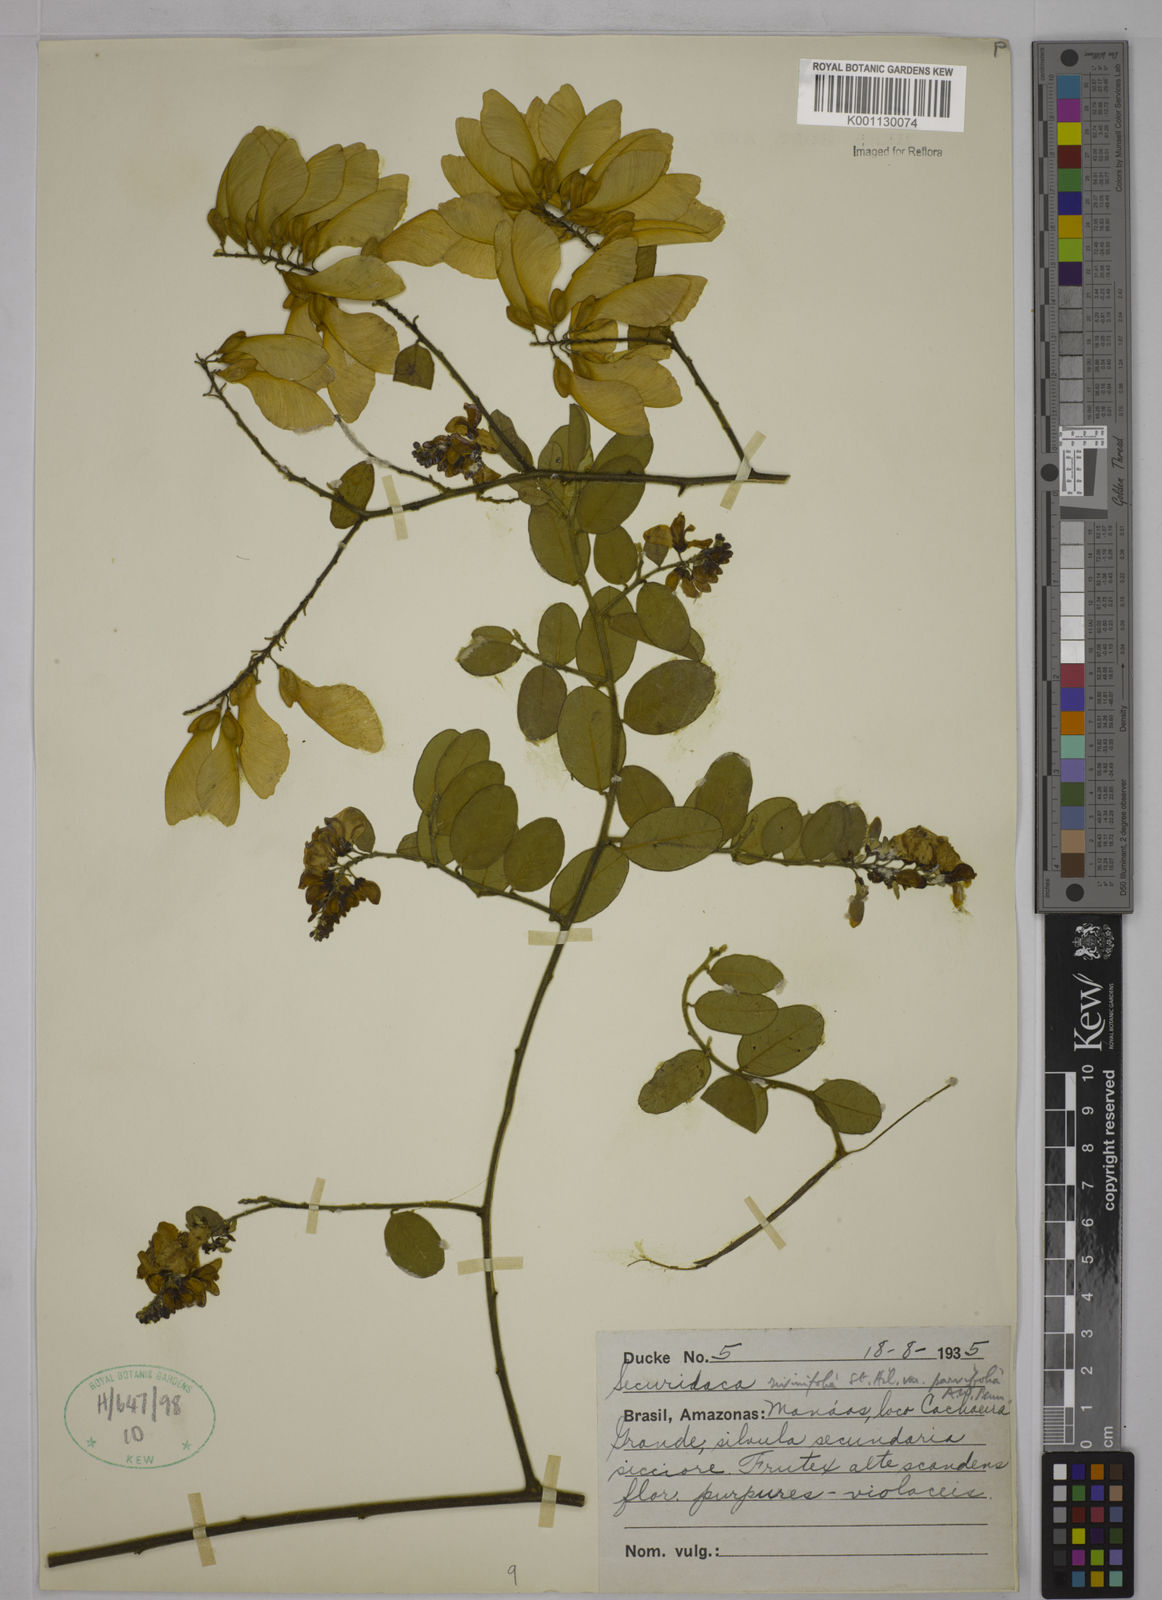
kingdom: Plantae
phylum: Tracheophyta
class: Magnoliopsida
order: Fabales
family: Polygalaceae
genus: Securidaca
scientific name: Securidaca rivinifolia
